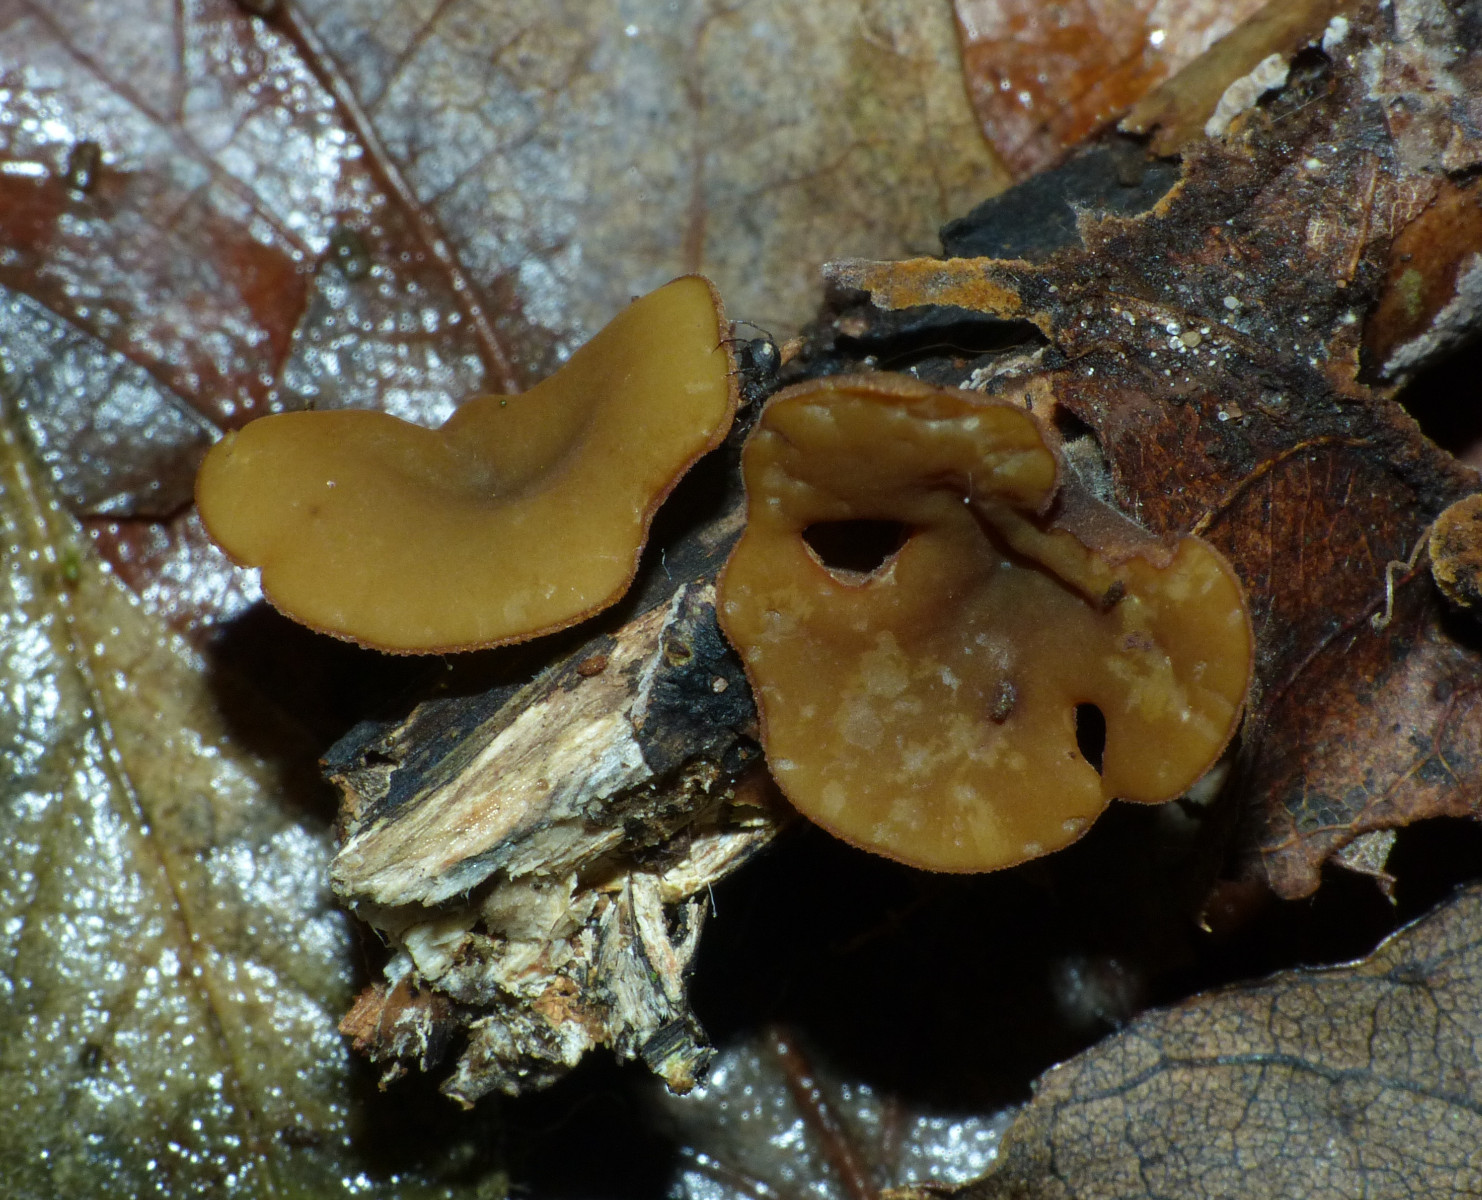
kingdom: Fungi
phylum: Ascomycota
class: Leotiomycetes
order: Helotiales
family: Rutstroemiaceae
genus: Rutstroemia
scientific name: Rutstroemia firma
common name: gren-brunskive
